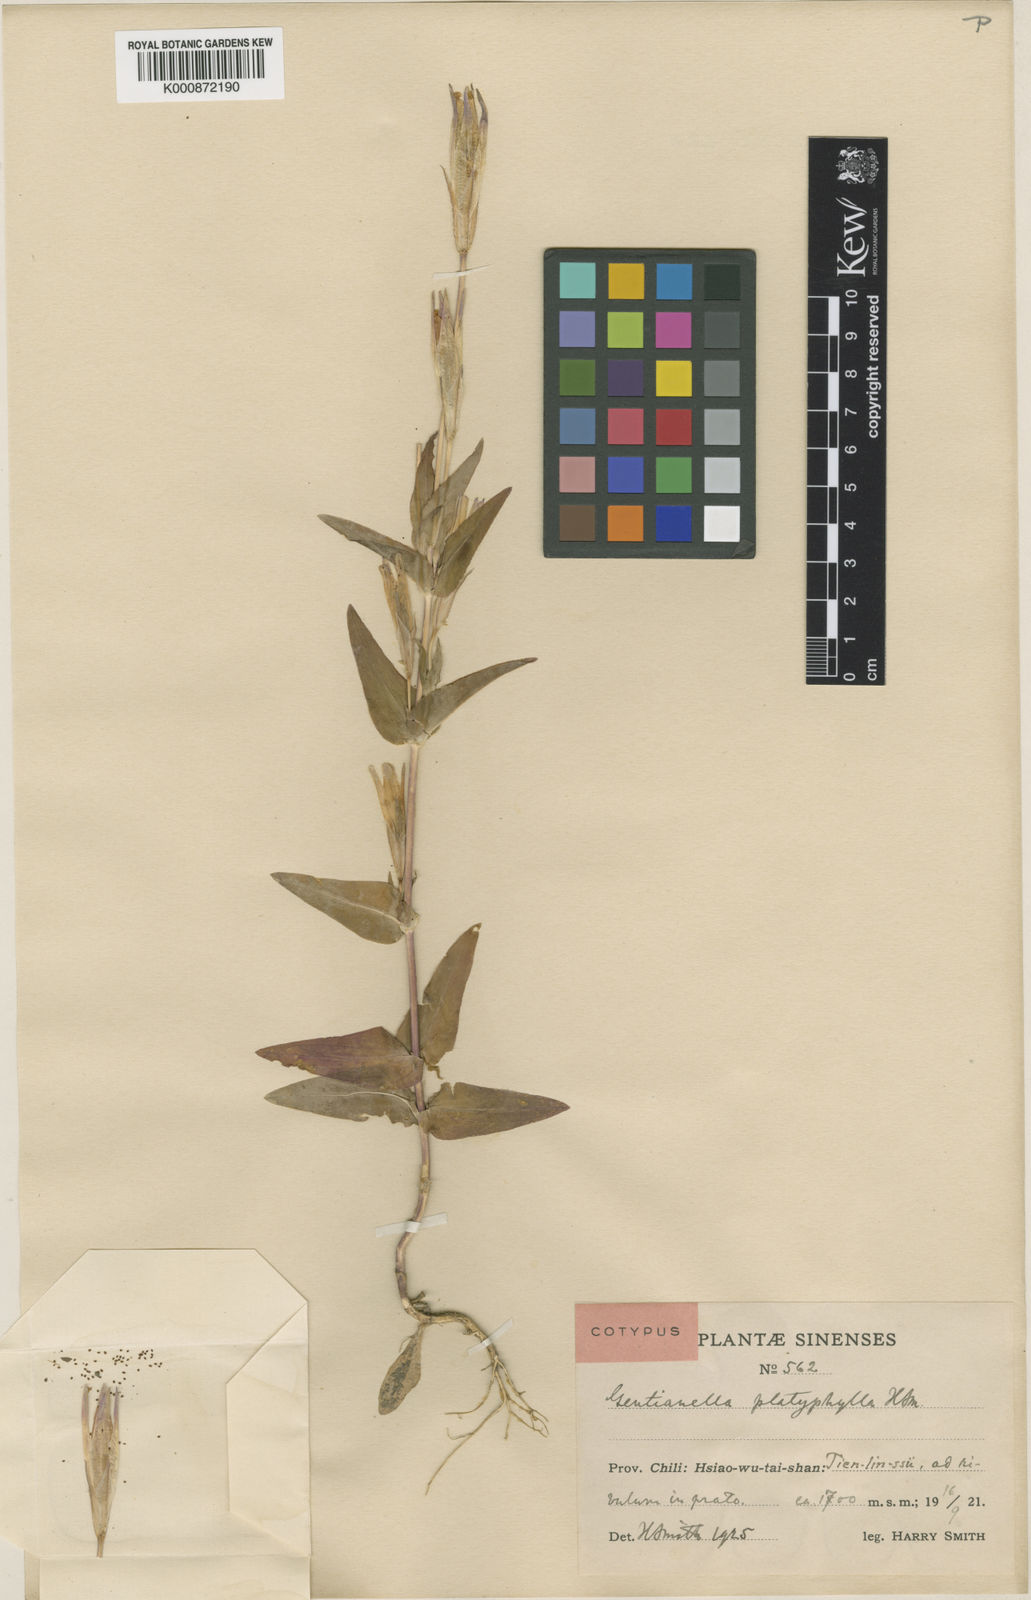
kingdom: Plantae
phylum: Tracheophyta
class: Magnoliopsida
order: Gentianales
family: Gentianaceae
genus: Gentianopsis
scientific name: Gentianopsis detonsa
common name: Fringed-gentian
